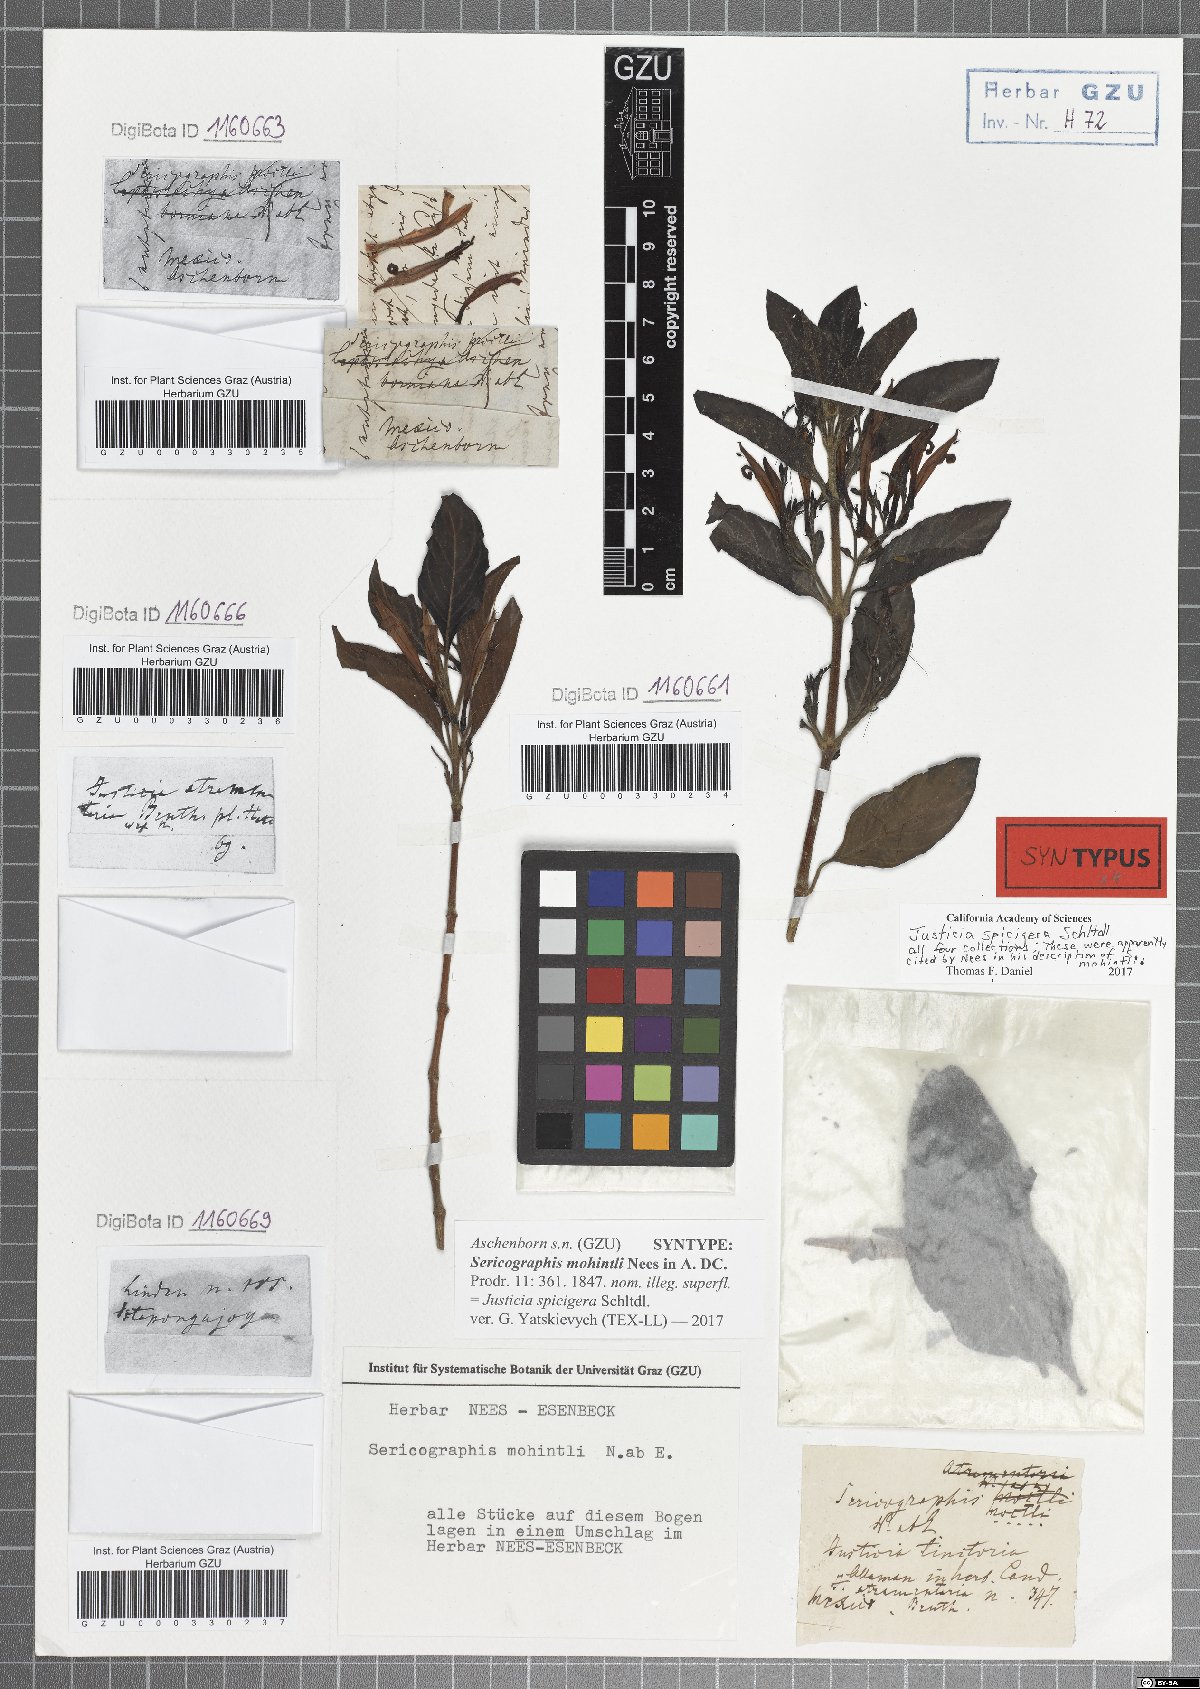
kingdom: Plantae
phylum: Tracheophyta
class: Magnoliopsida
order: Lamiales
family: Acanthaceae
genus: Justicia
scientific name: Justicia spicigera
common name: Mohintli
